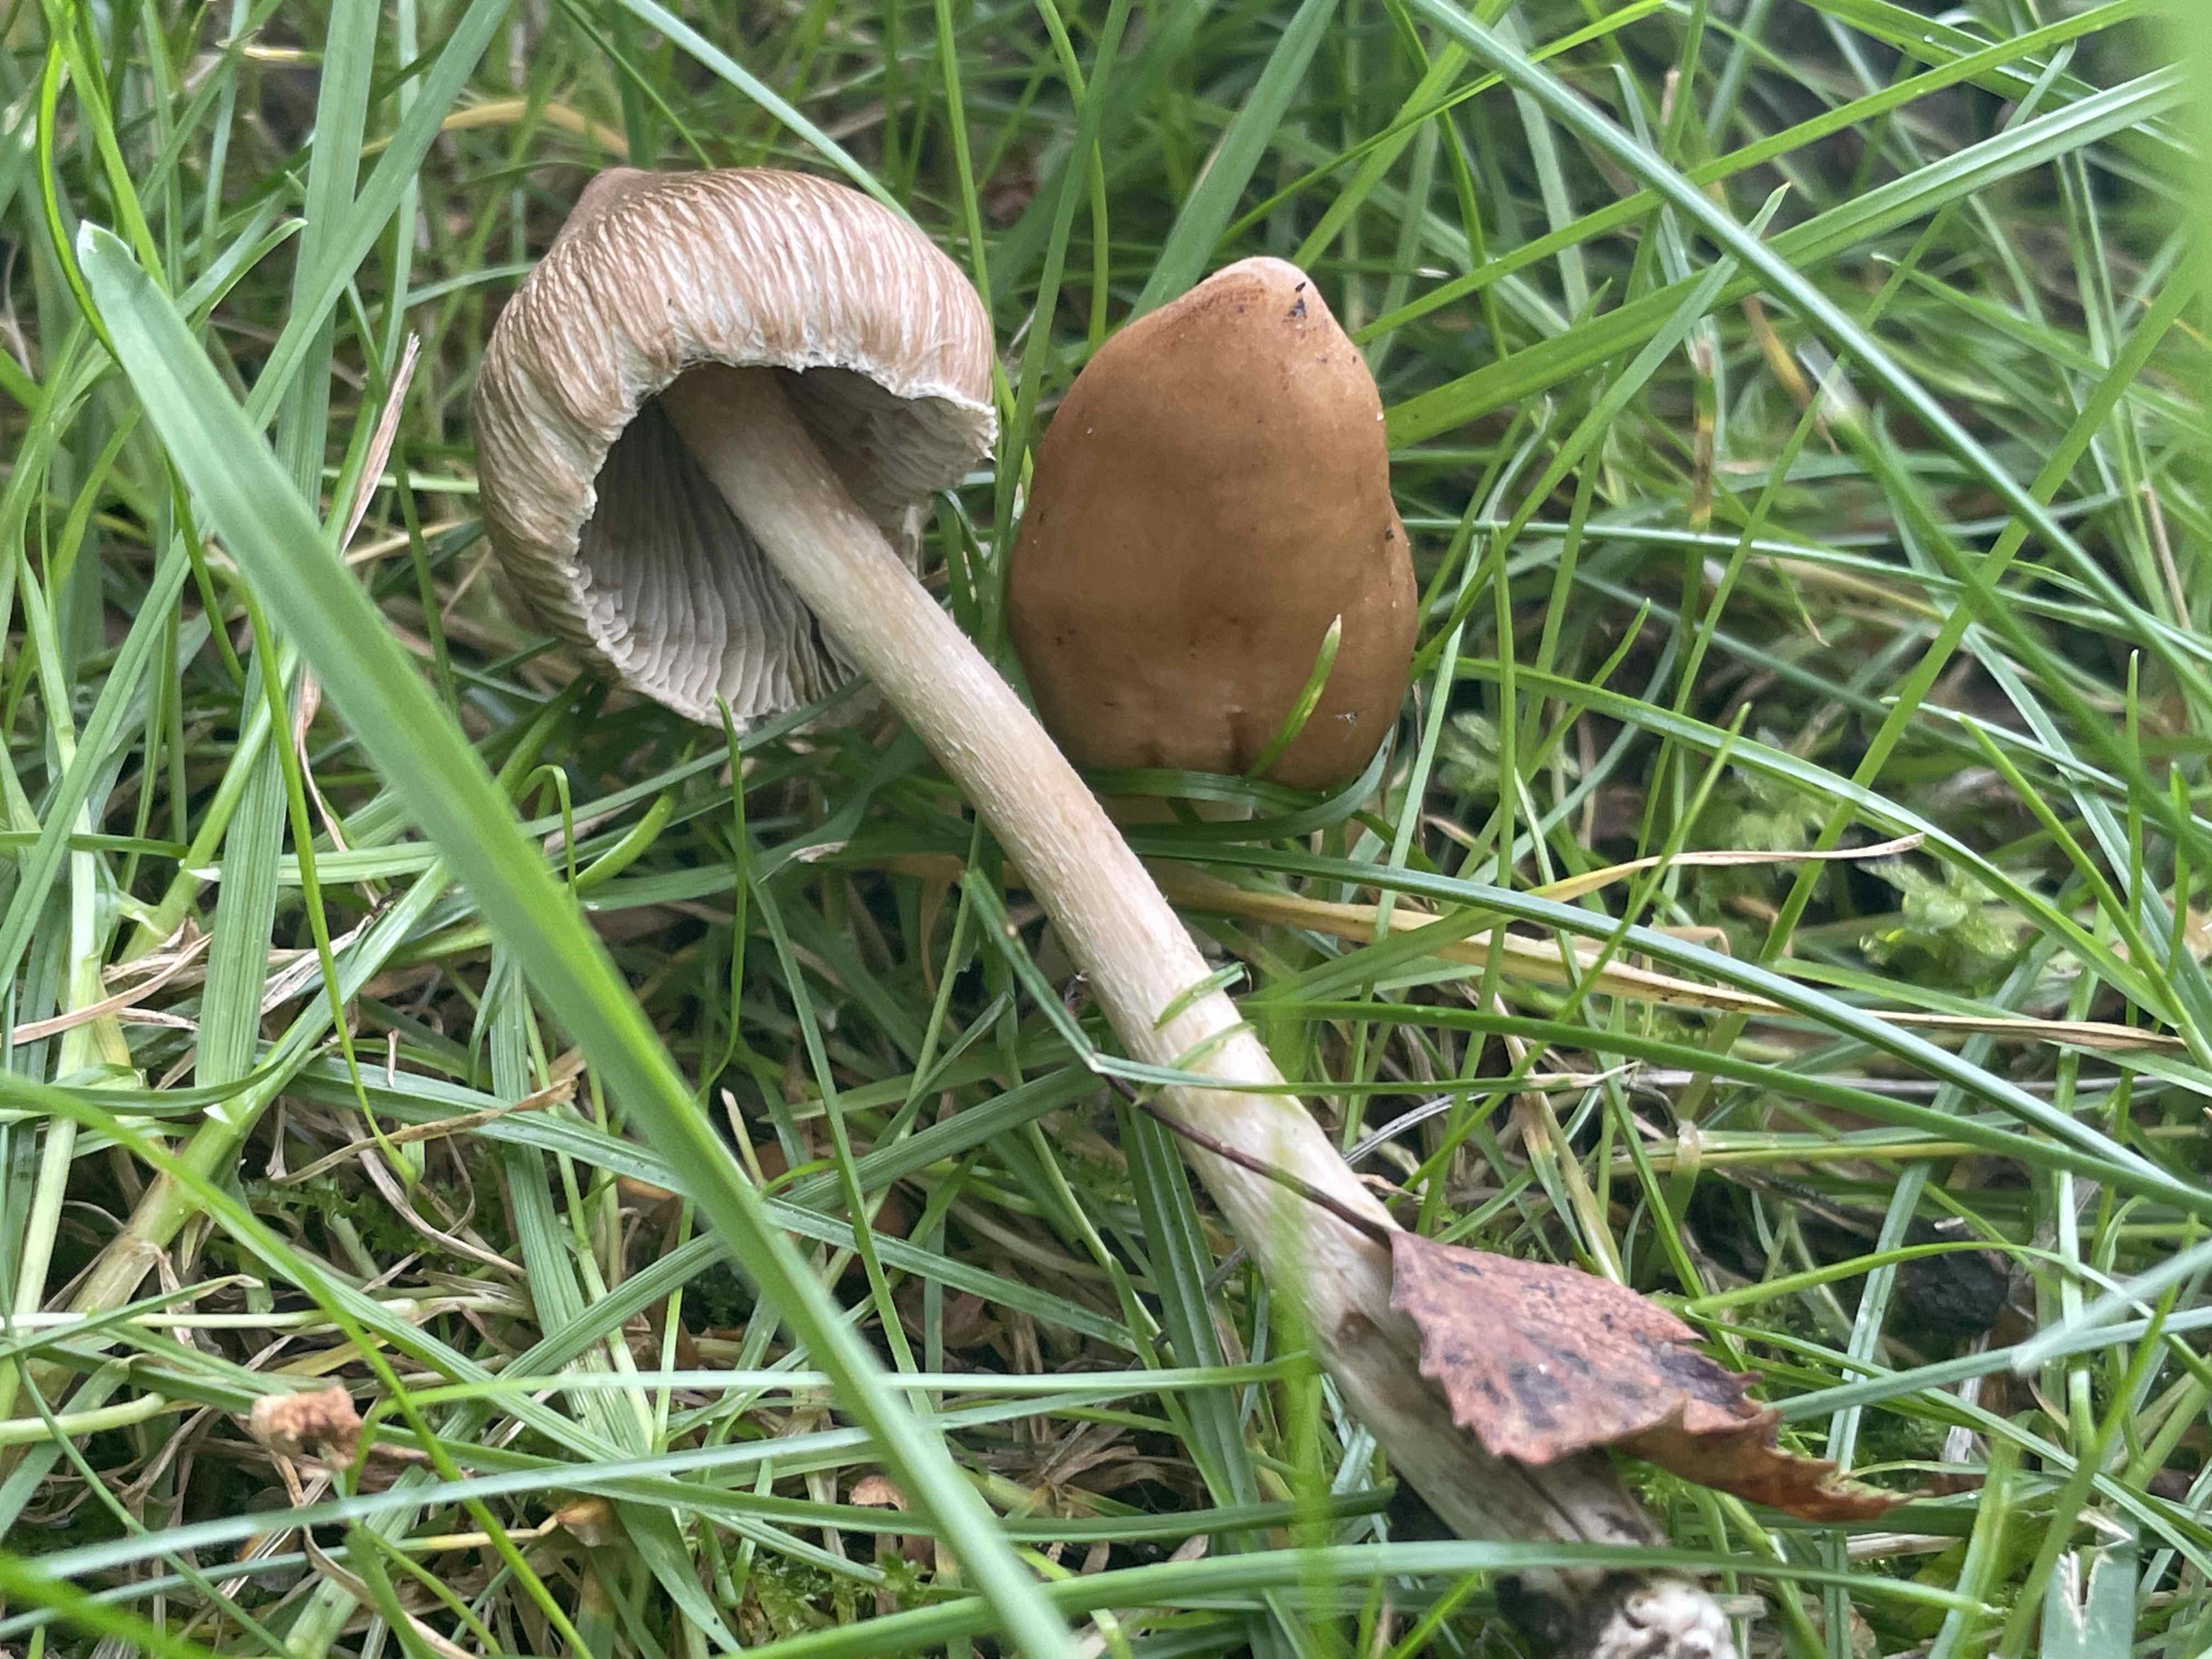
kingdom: Fungi
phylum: Basidiomycota
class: Agaricomycetes
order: Agaricales
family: Inocybaceae
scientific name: Inocybaceae
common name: trævlhatfamilien
